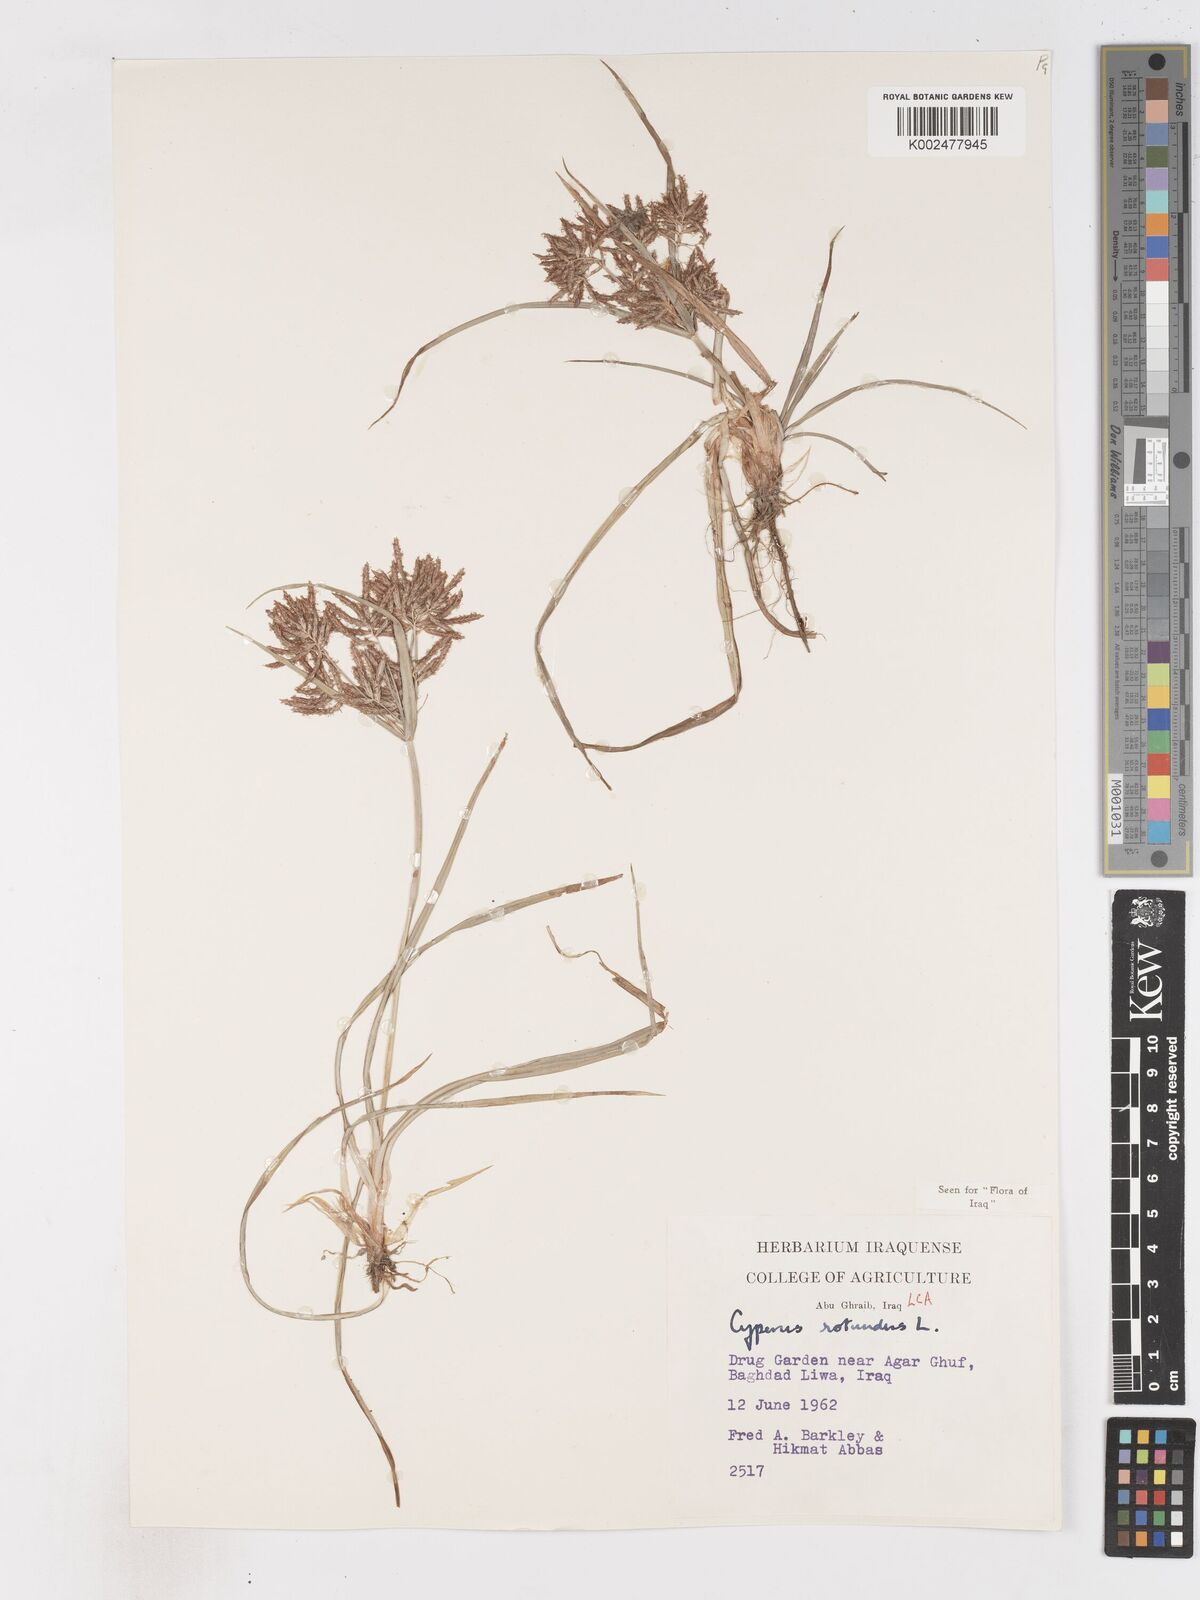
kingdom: Plantae
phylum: Tracheophyta
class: Liliopsida
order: Poales
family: Cyperaceae
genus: Cyperus
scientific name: Cyperus rotundus
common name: Nutgrass
